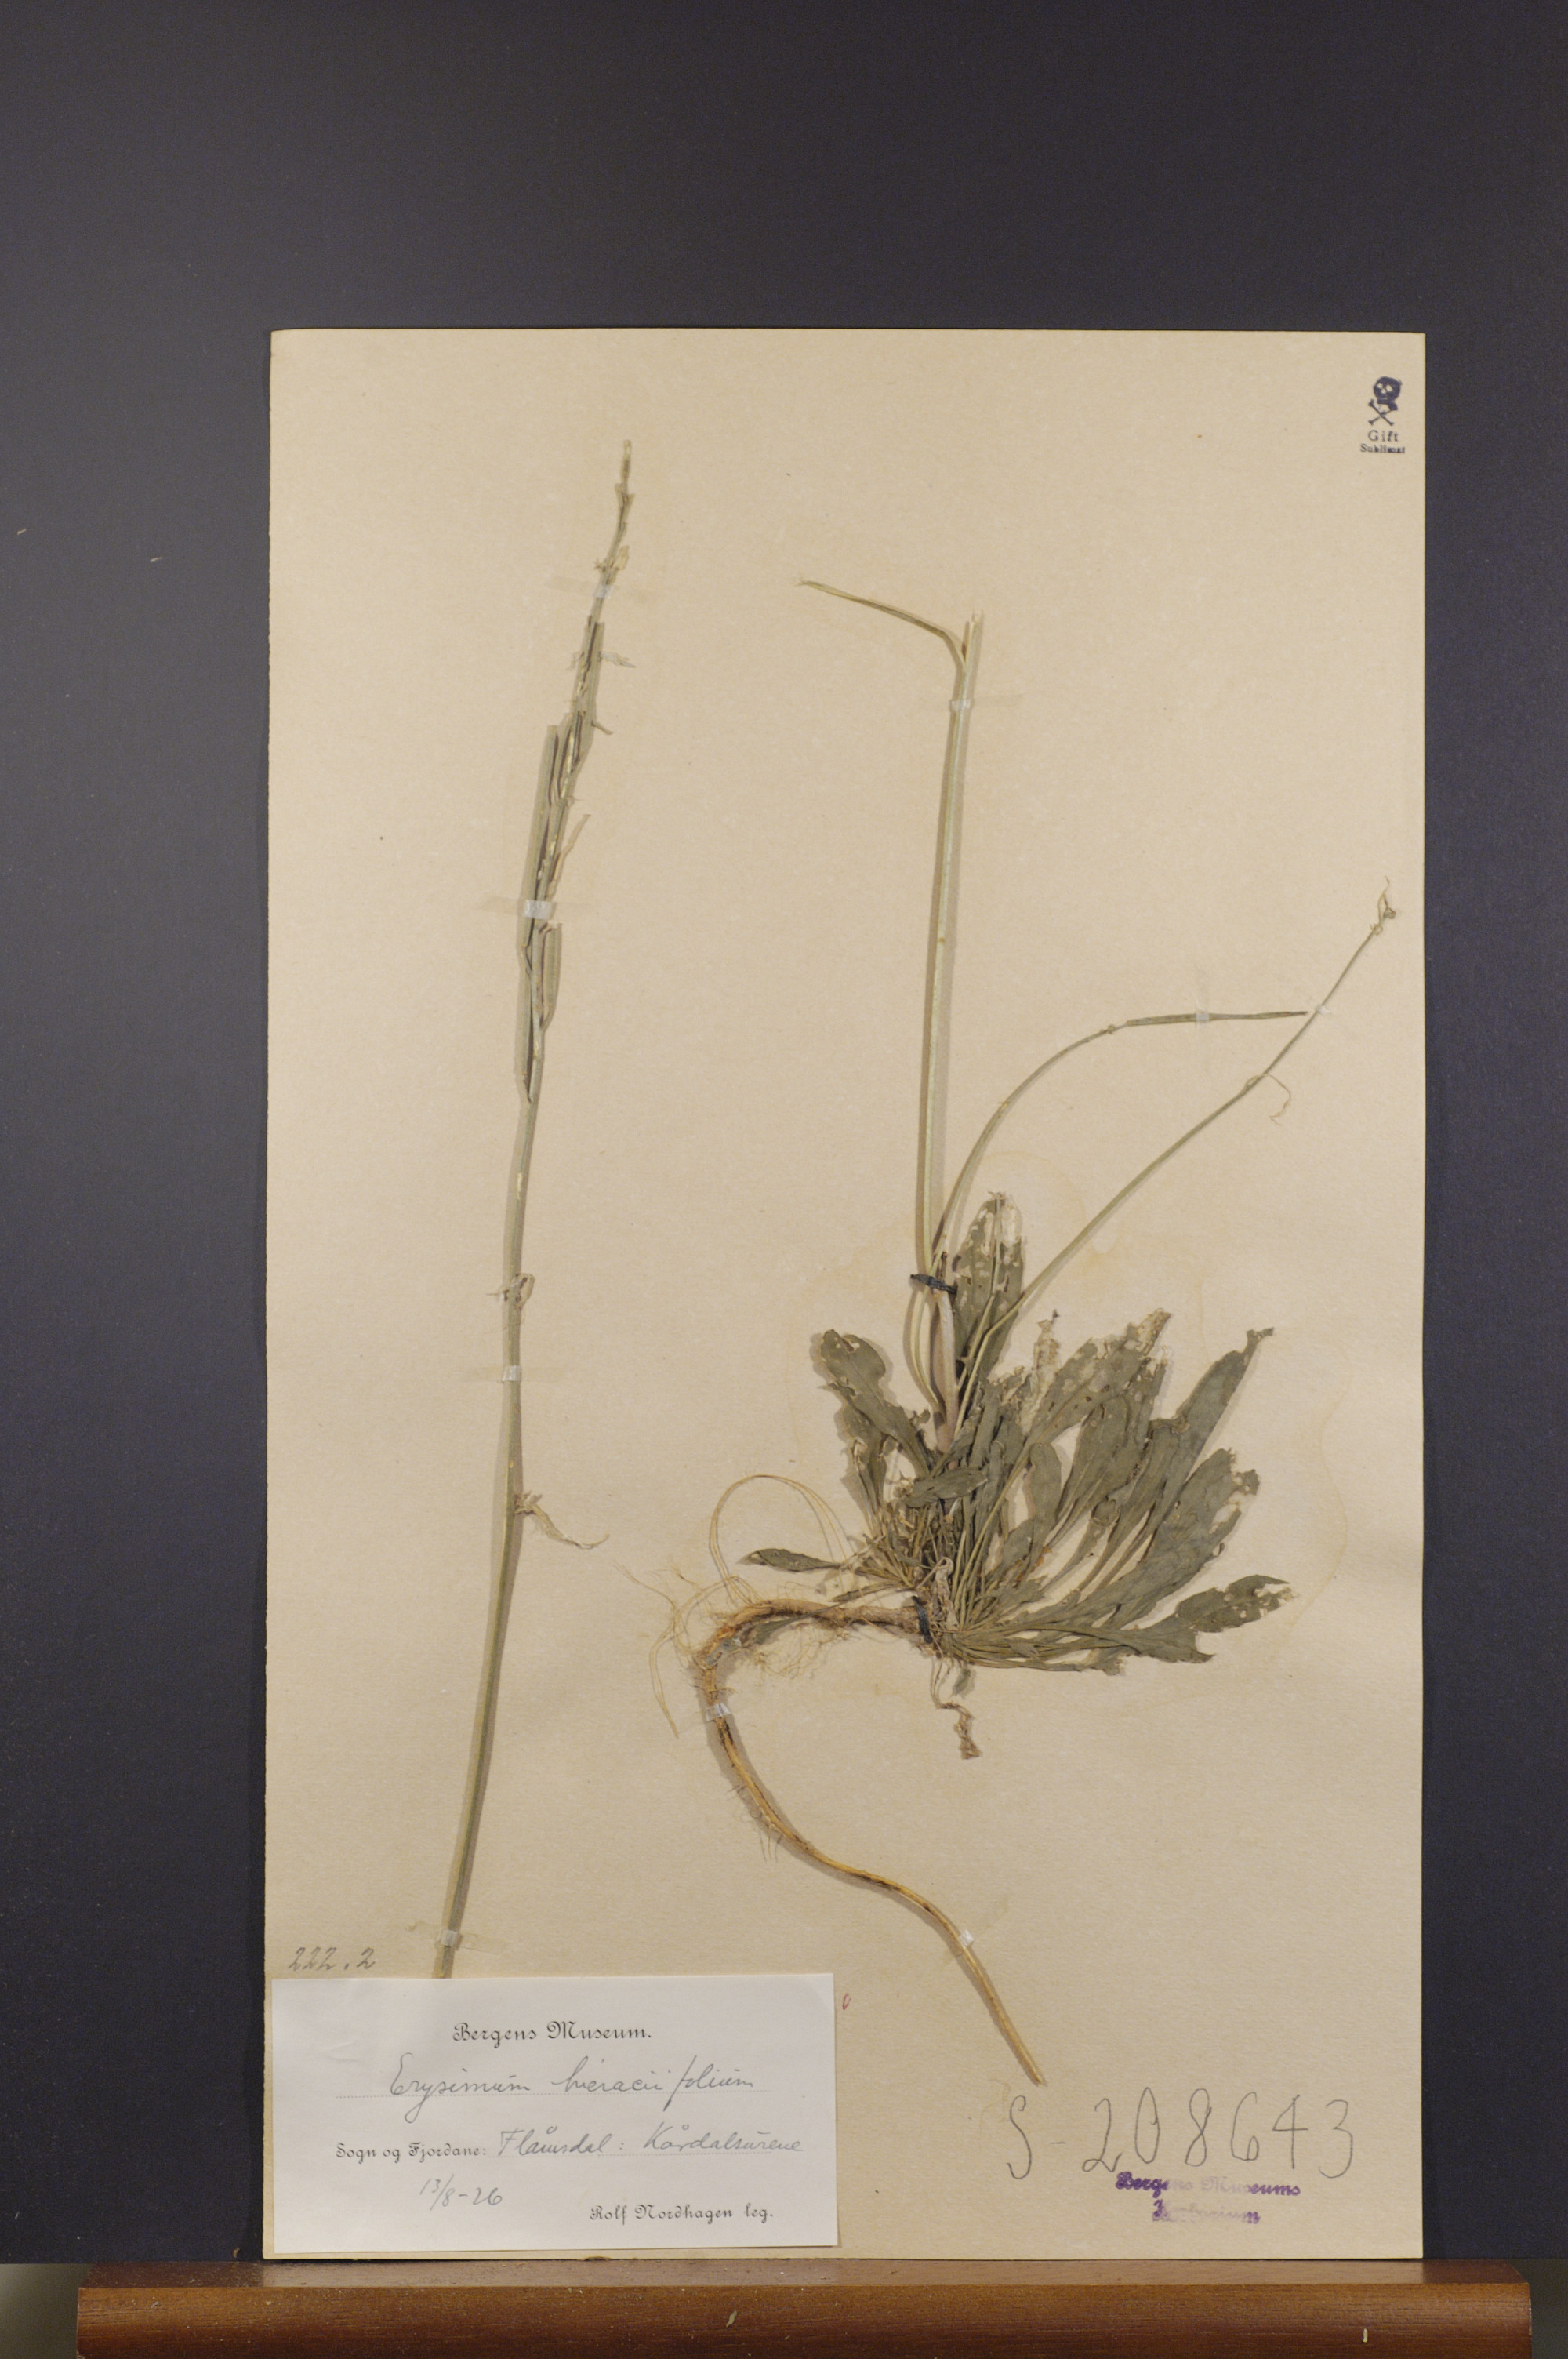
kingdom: Plantae
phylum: Tracheophyta
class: Magnoliopsida
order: Brassicales
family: Brassicaceae
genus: Erysimum
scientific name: Erysimum hieraciifolium
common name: European wallflower
